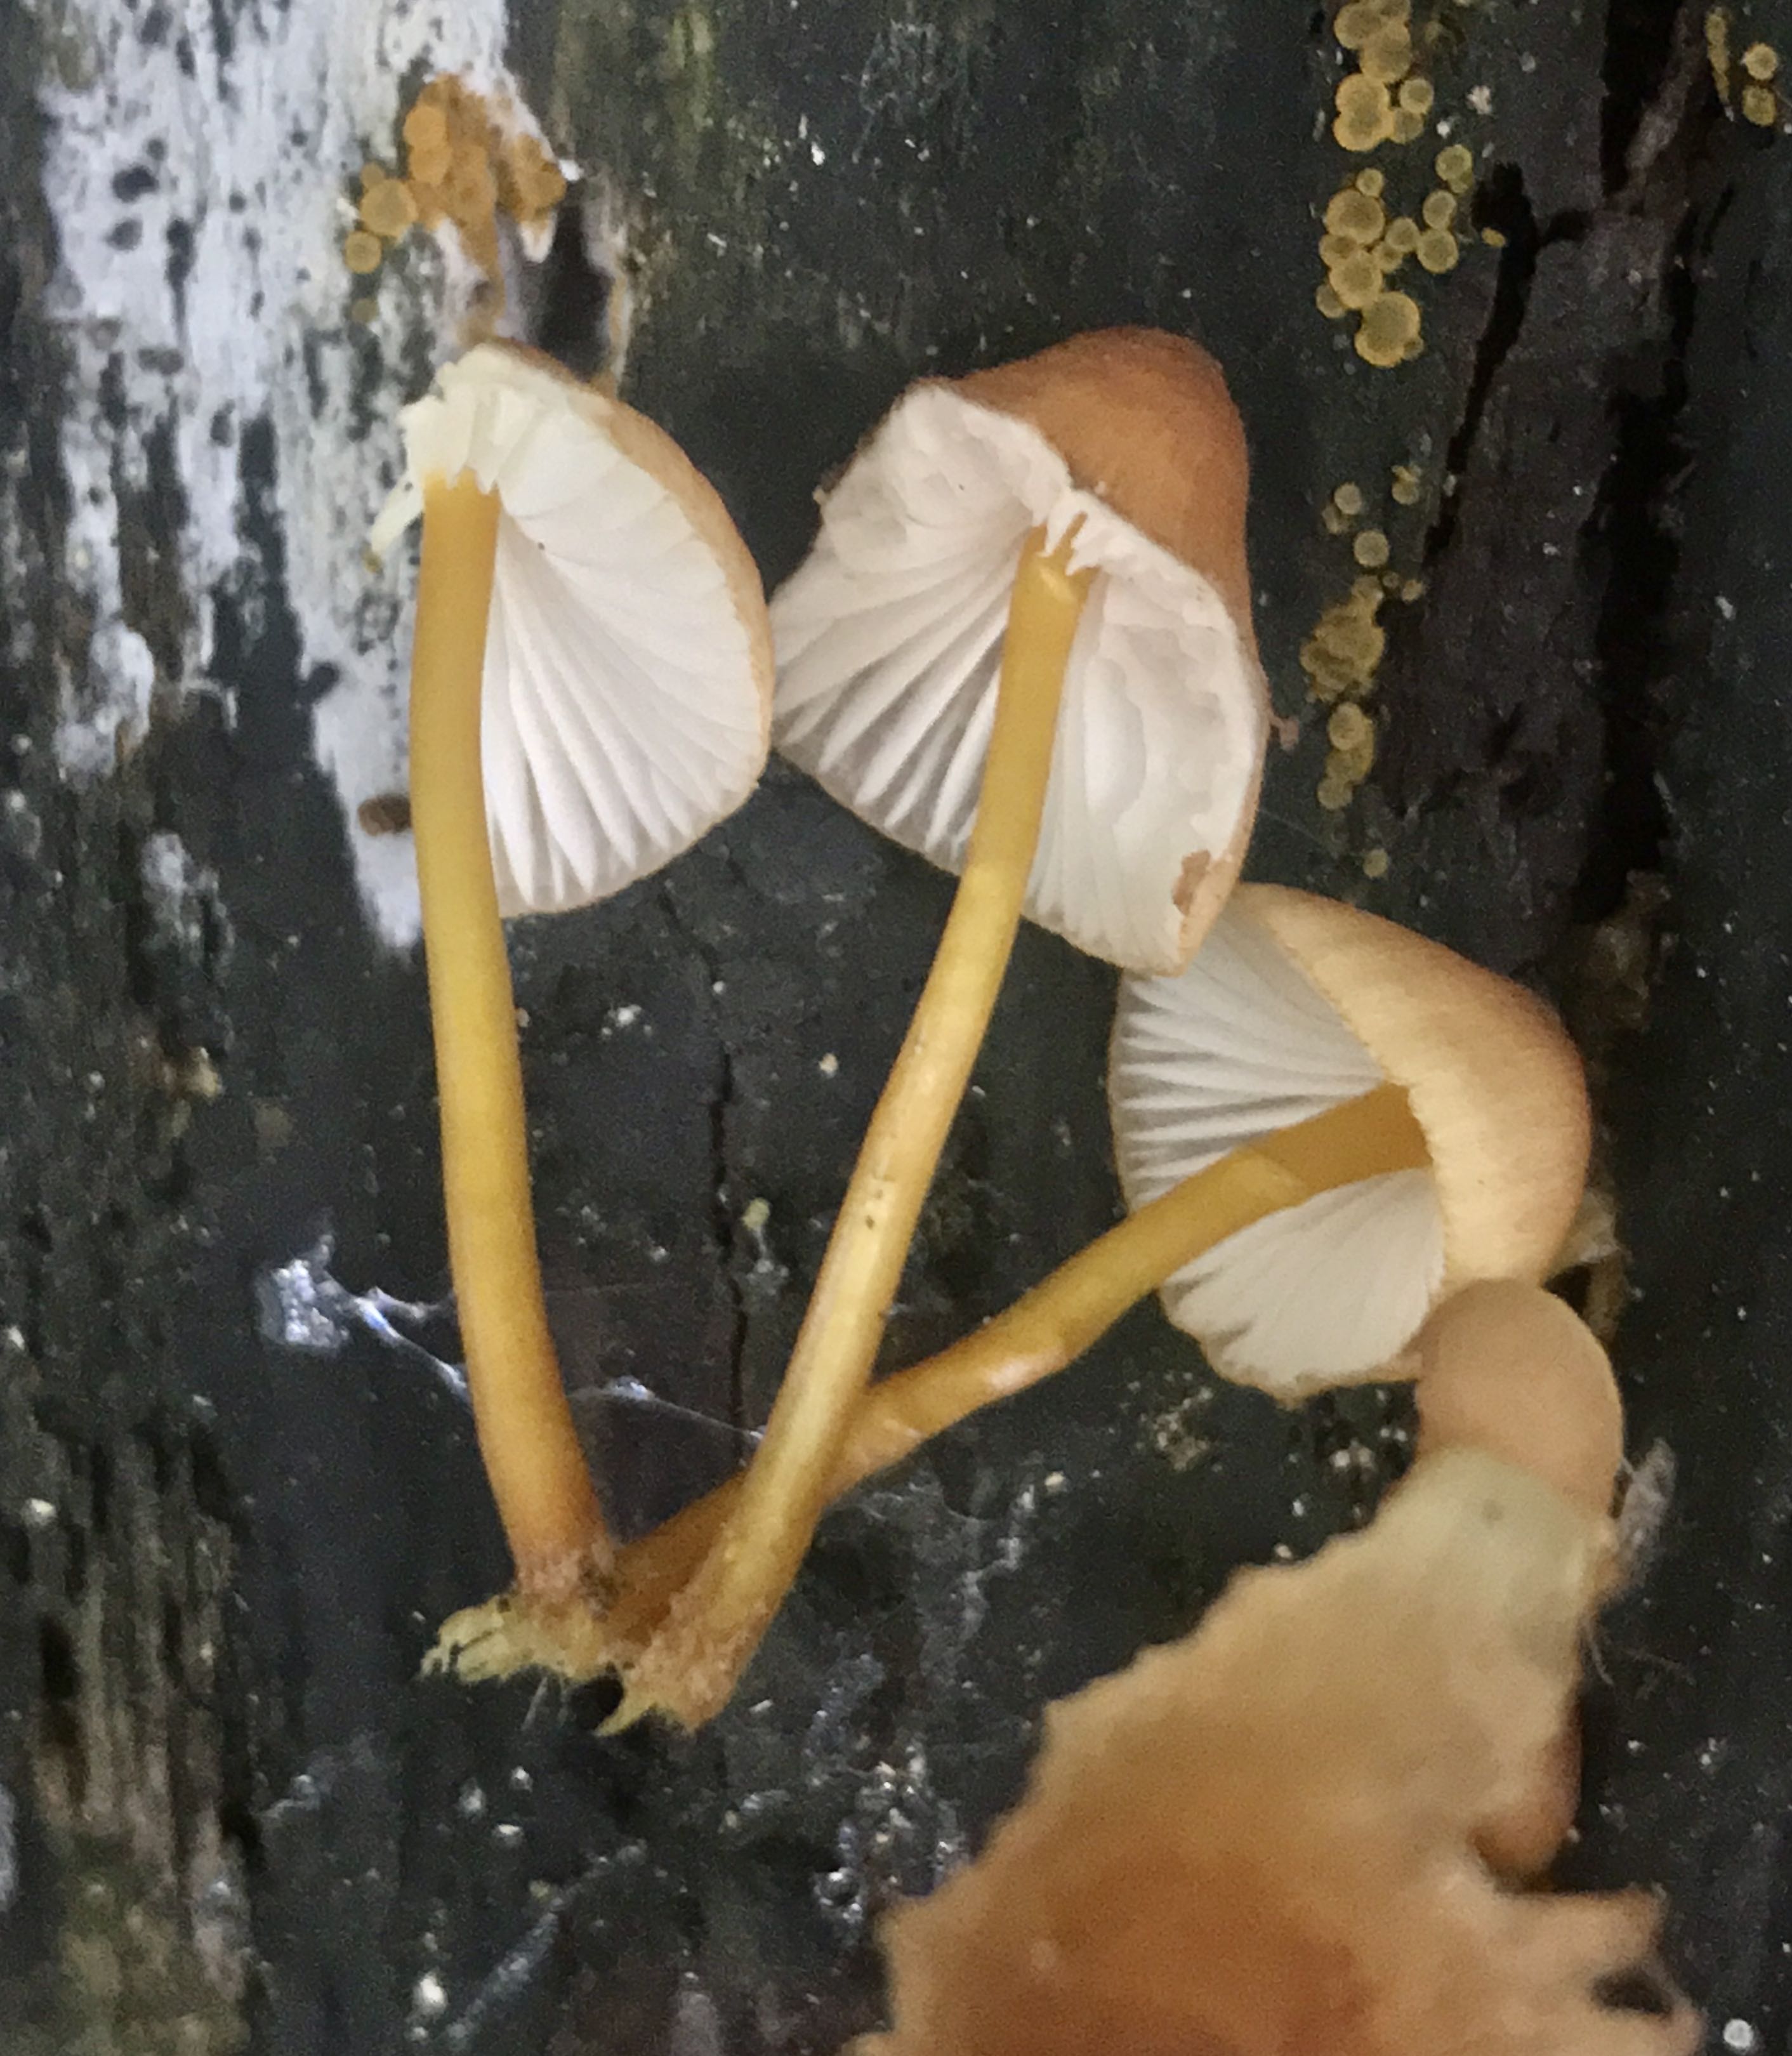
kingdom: Fungi
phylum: Basidiomycota
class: Agaricomycetes
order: Agaricales
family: Mycenaceae
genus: Mycena
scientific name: Mycena renati
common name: smuk huesvamp
